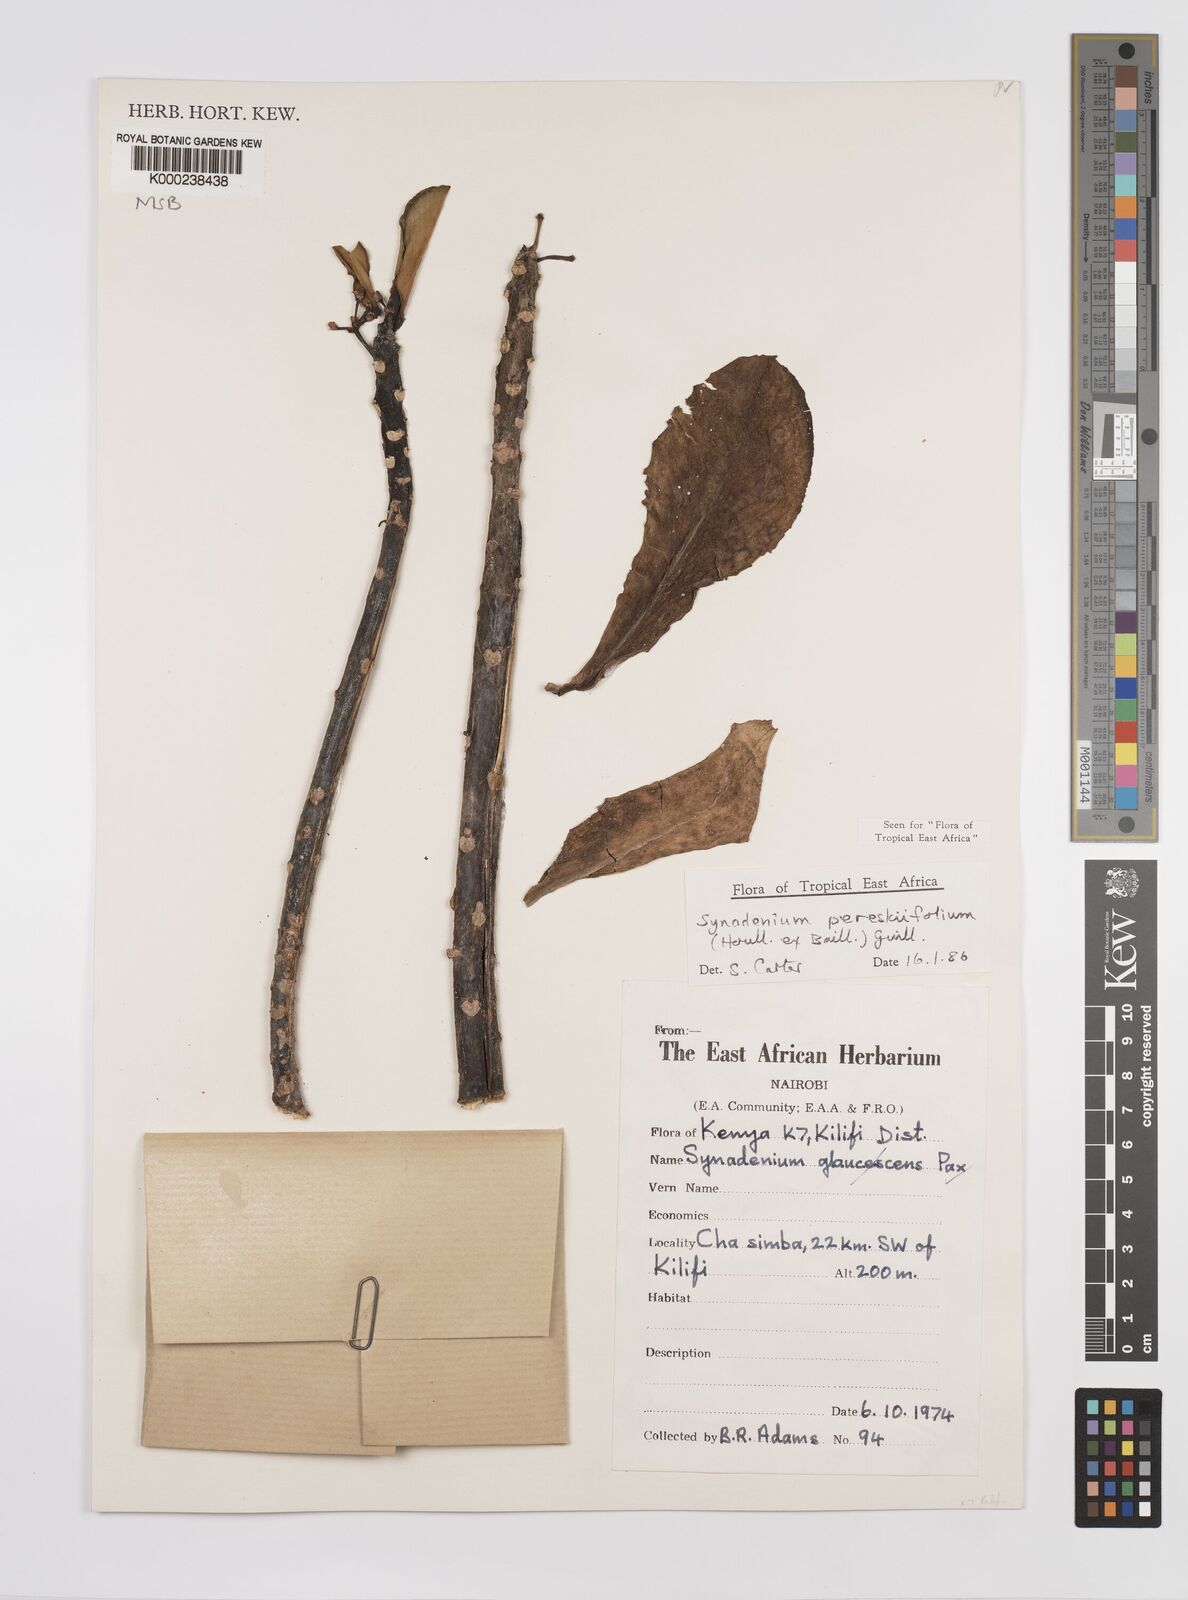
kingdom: Plantae
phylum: Tracheophyta
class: Magnoliopsida
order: Malpighiales
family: Euphorbiaceae
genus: Euphorbia
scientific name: Euphorbia pereskiifolia
